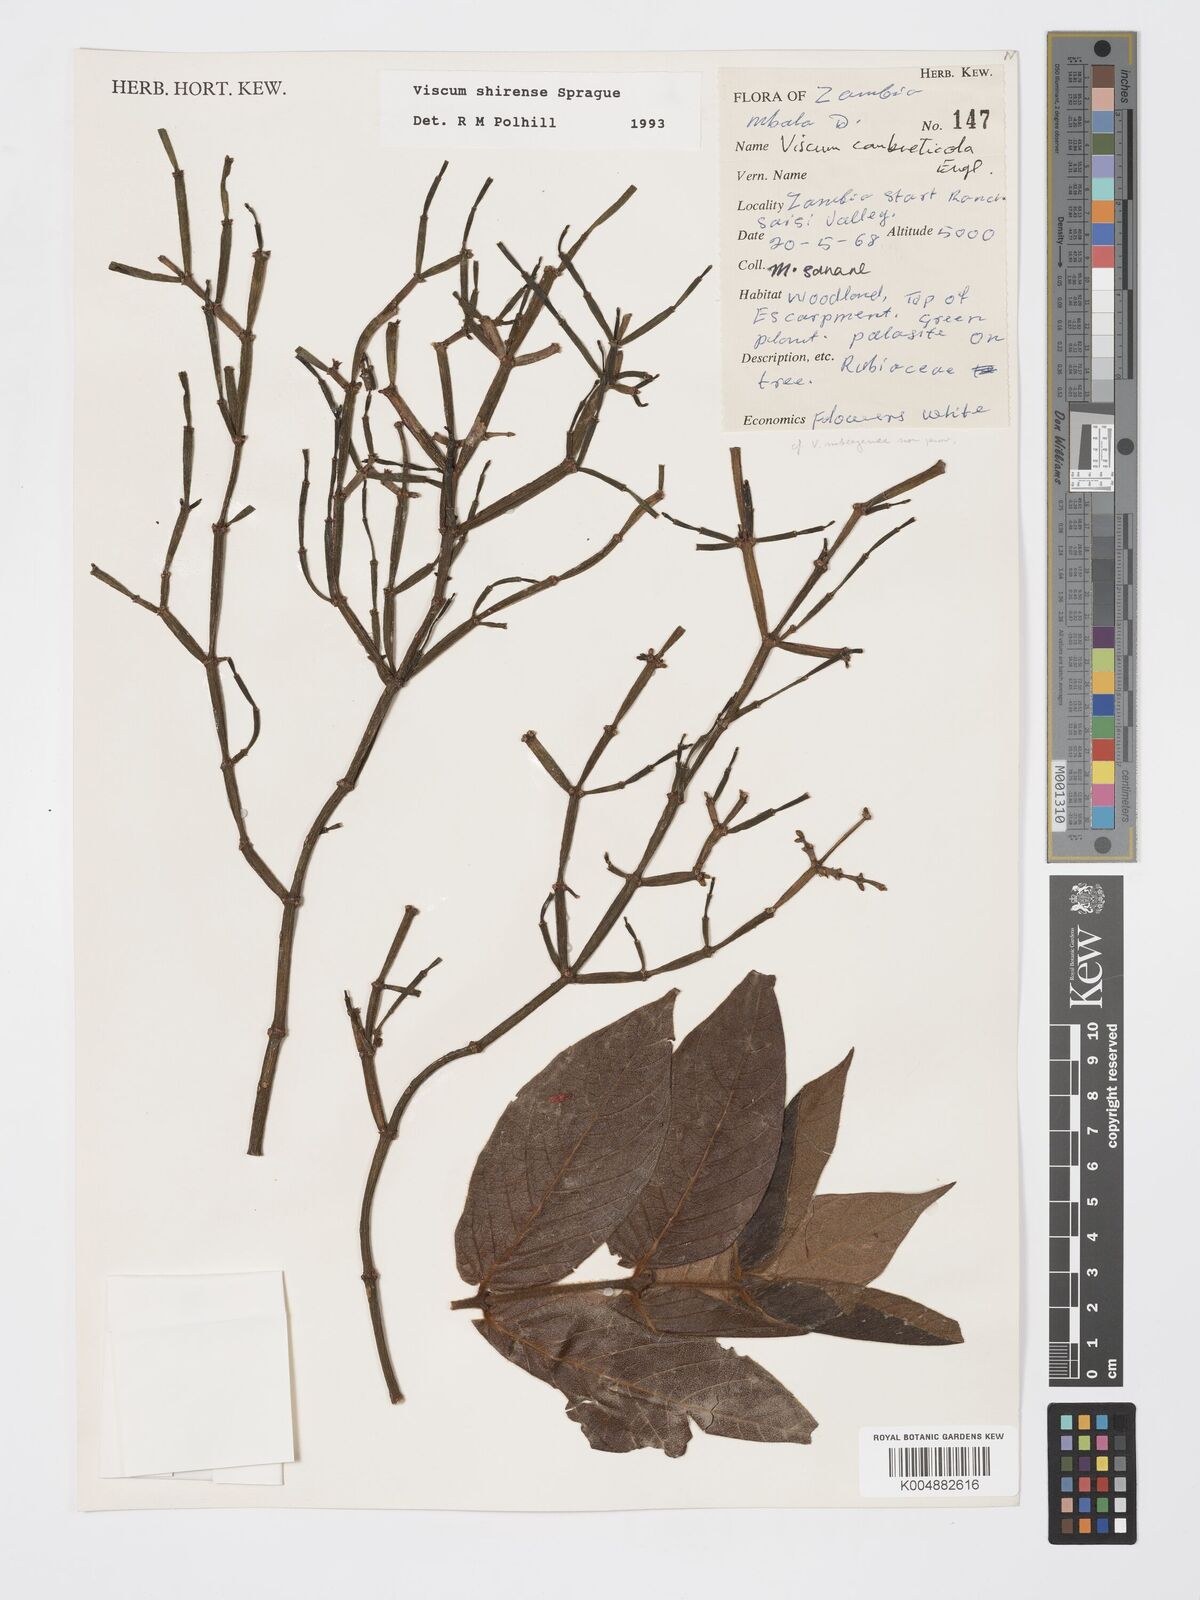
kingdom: Plantae
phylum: Tracheophyta
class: Magnoliopsida
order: Santalales
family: Viscaceae
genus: Viscum
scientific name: Viscum junodii
